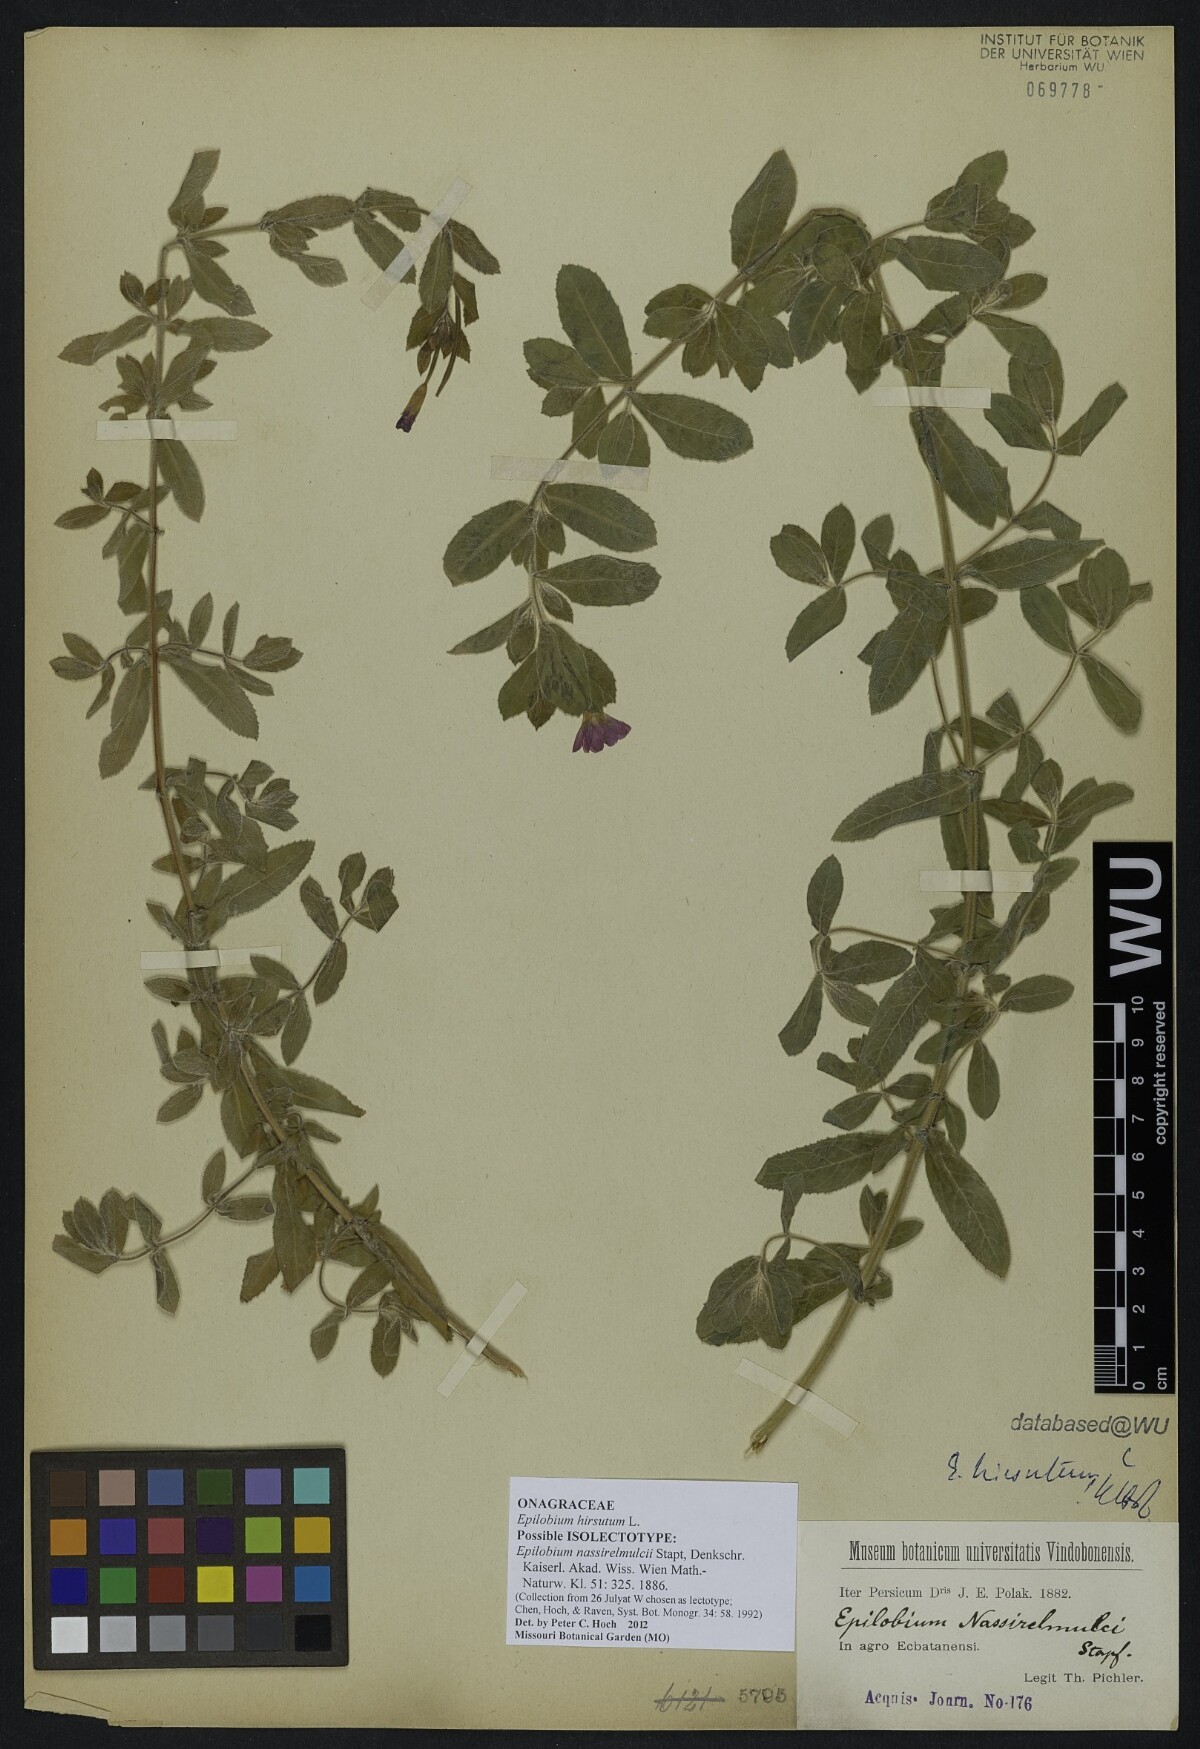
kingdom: Plantae
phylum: Tracheophyta
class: Magnoliopsida
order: Myrtales
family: Onagraceae
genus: Epilobium
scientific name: Epilobium nassirelmulcii
